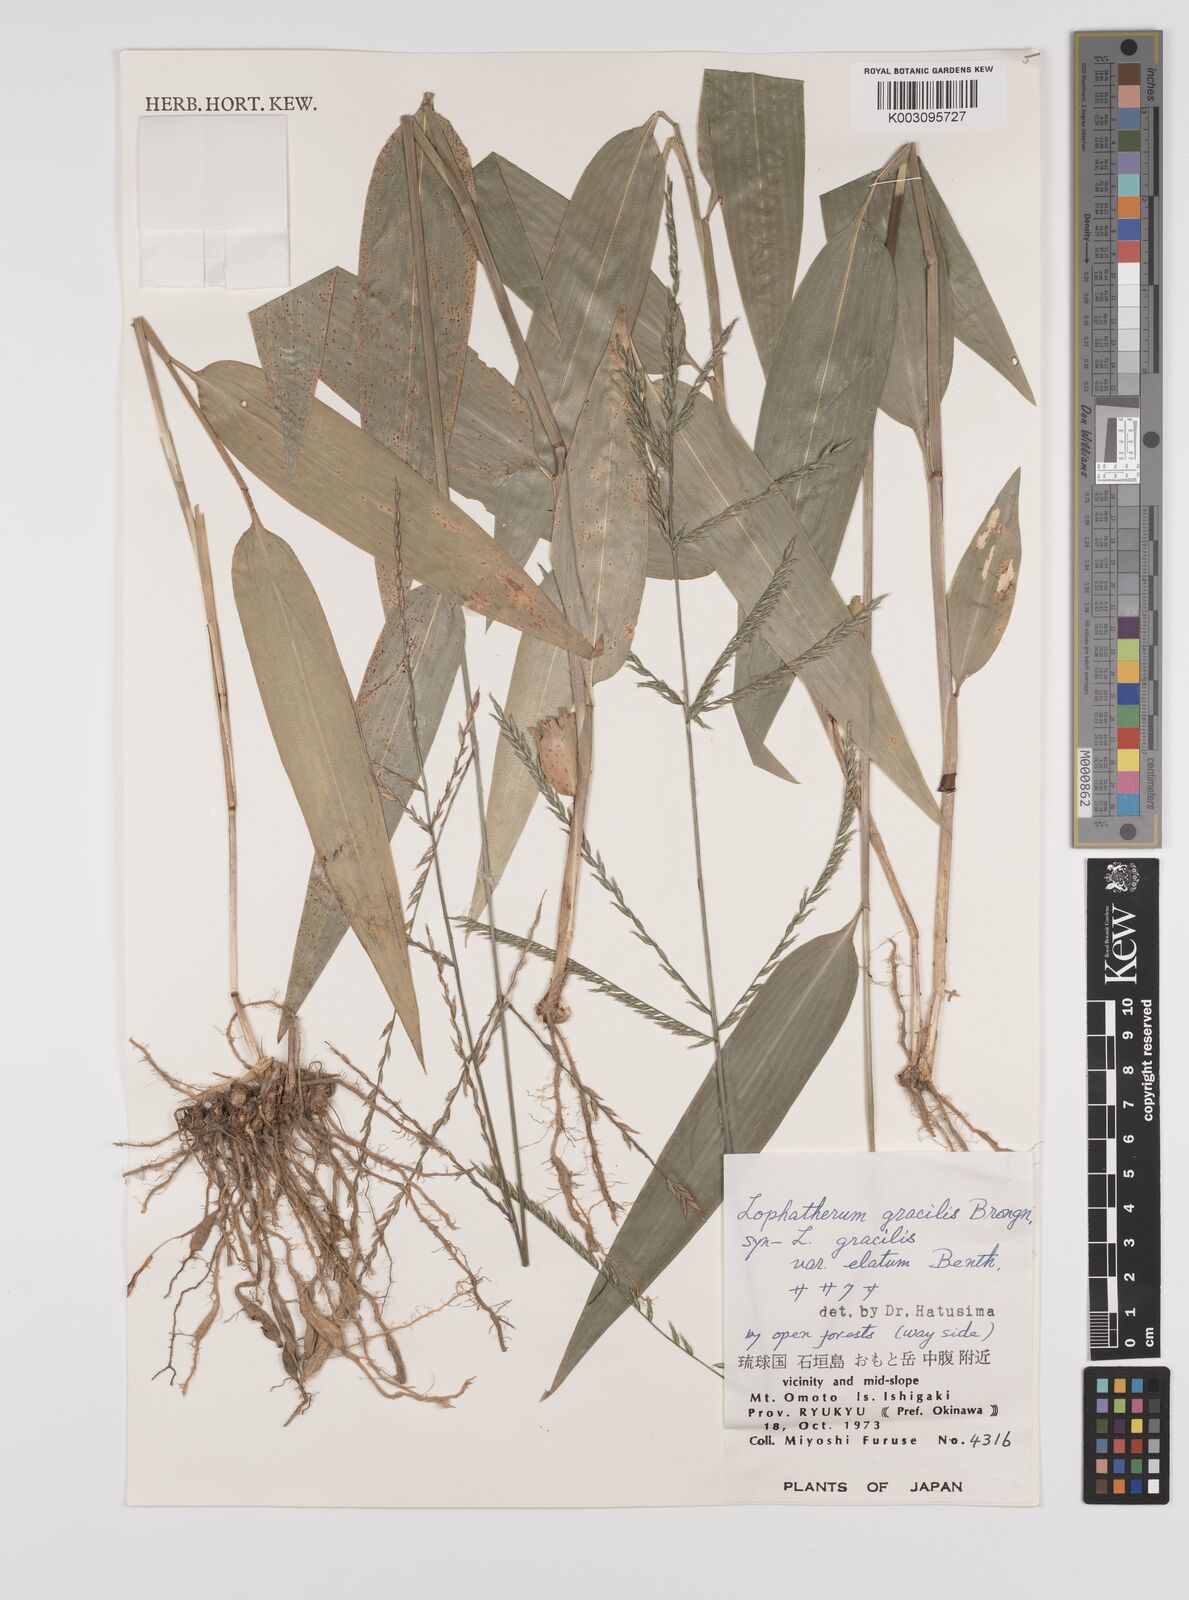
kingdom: Plantae
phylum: Tracheophyta
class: Liliopsida
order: Poales
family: Poaceae
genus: Lophatherum
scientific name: Lophatherum gracile
